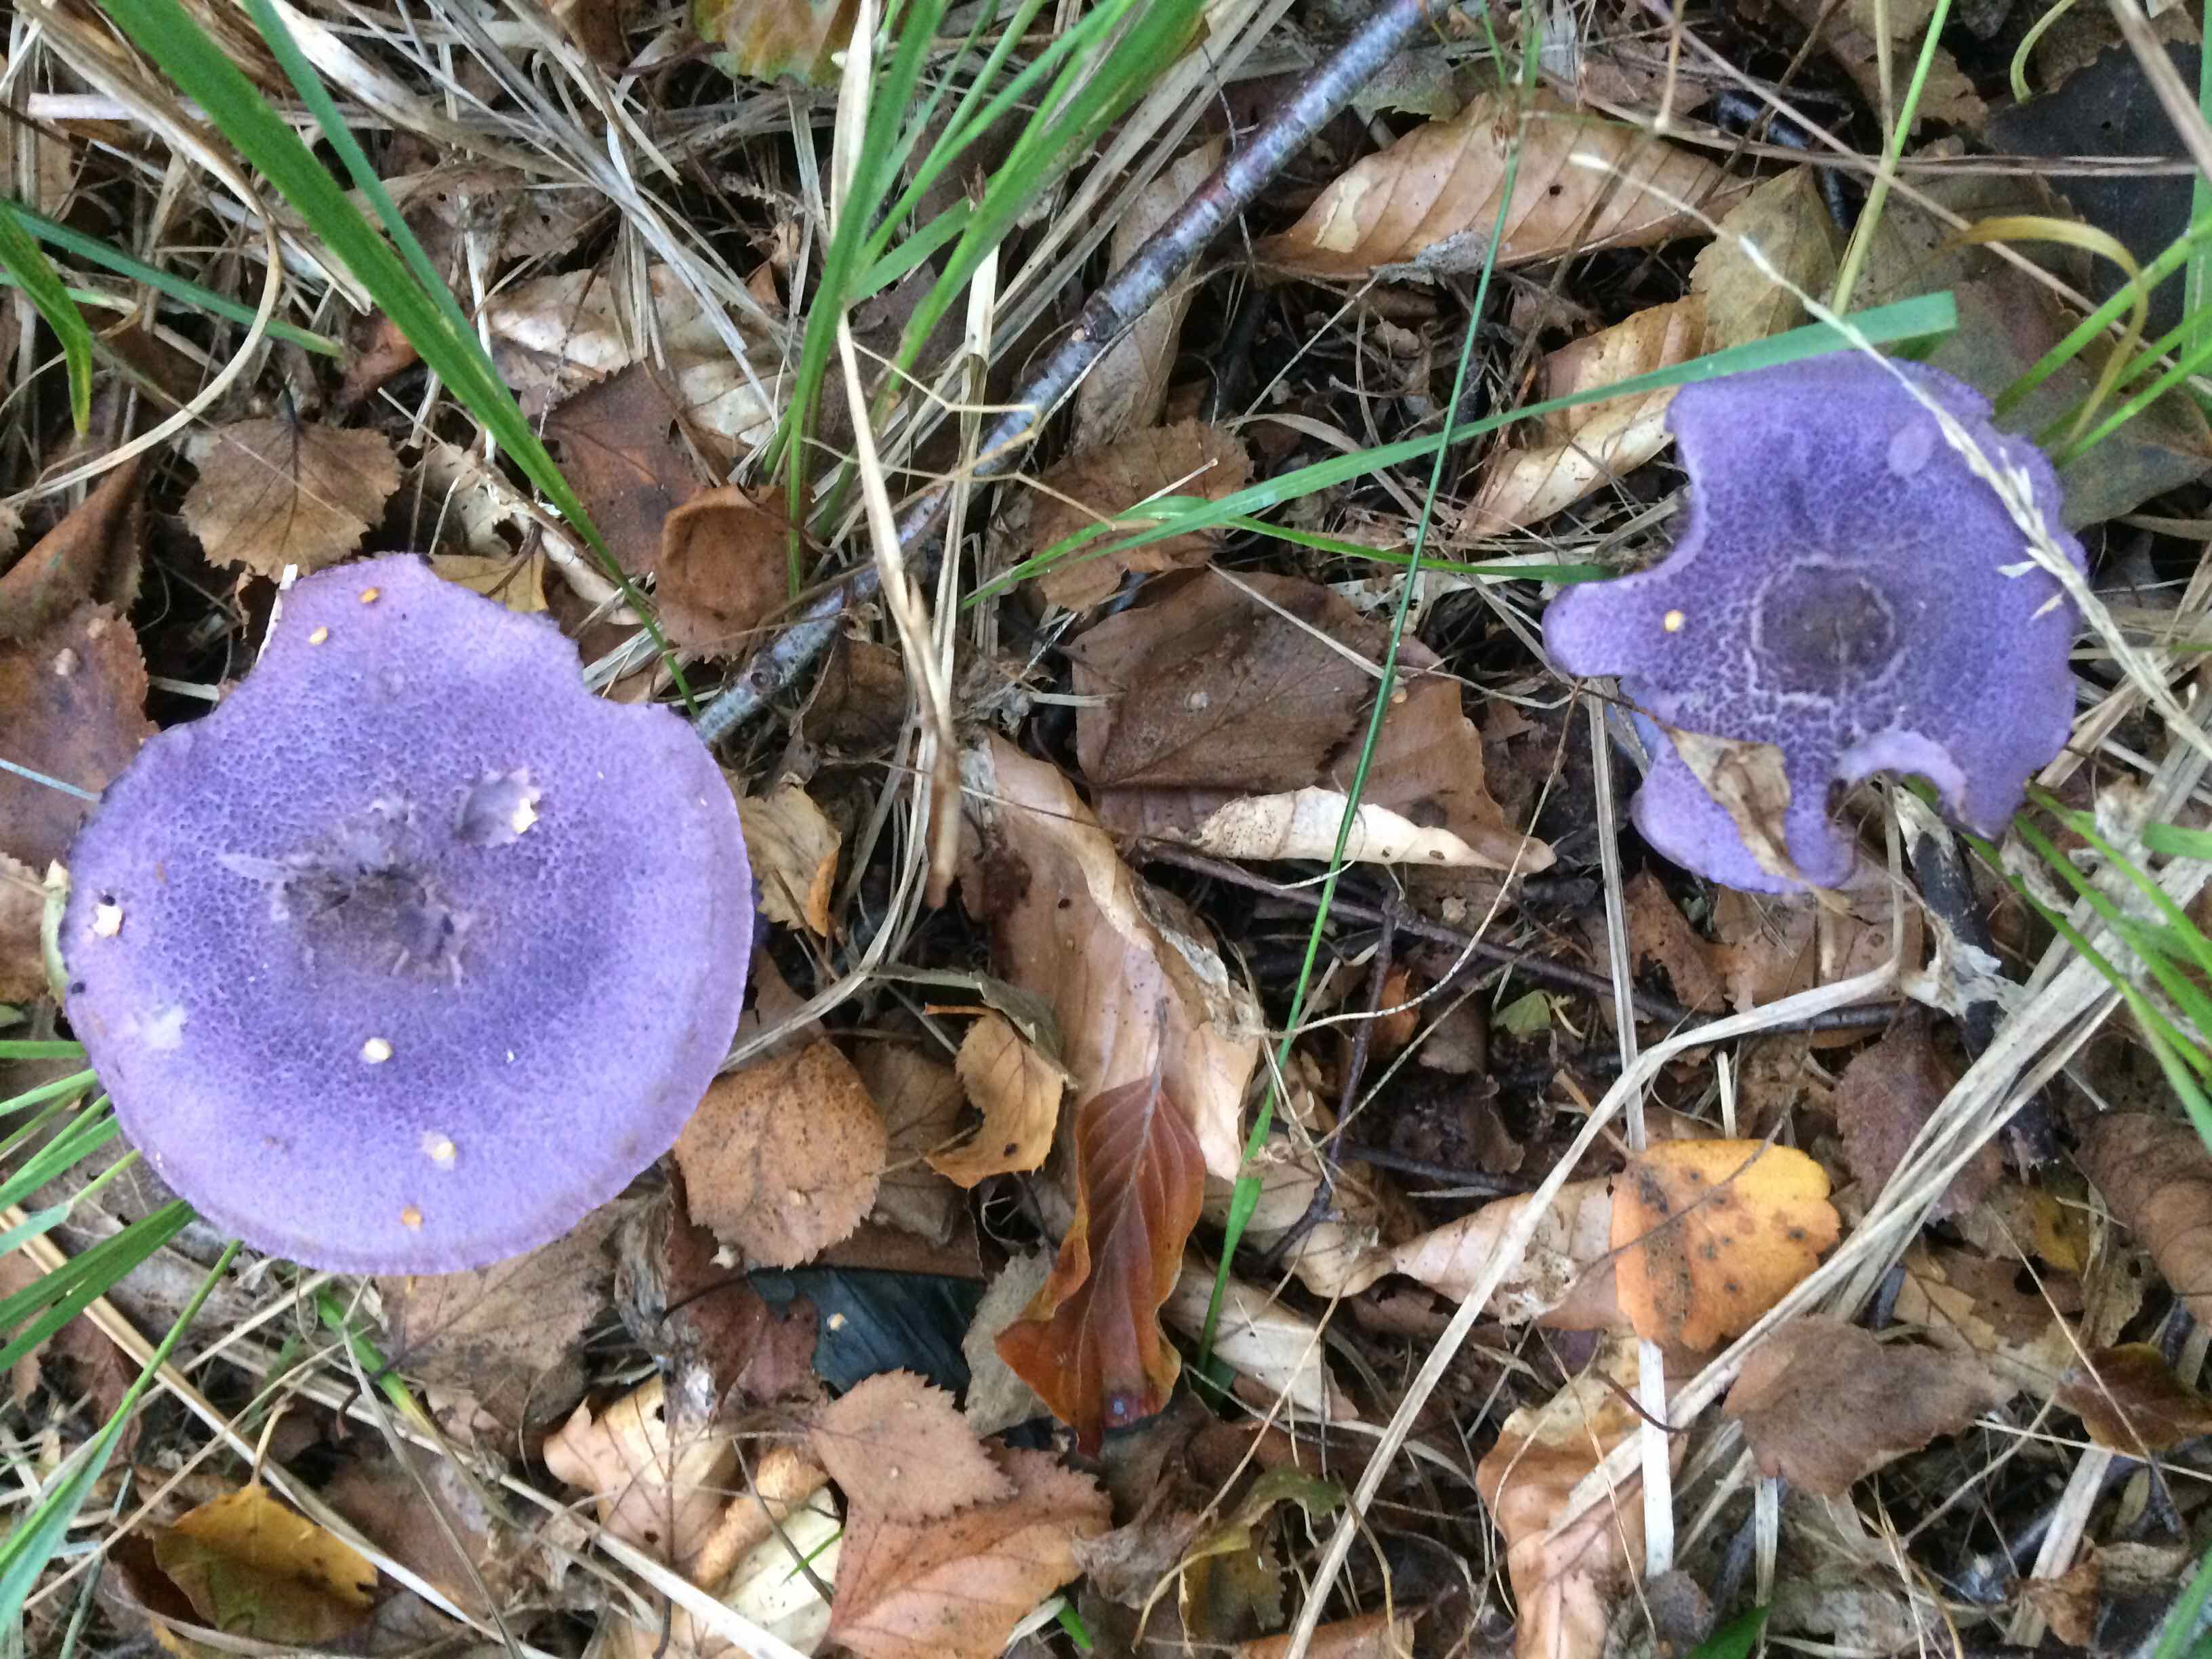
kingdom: Fungi
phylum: Basidiomycota
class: Agaricomycetes
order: Agaricales
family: Cortinariaceae
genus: Cortinarius
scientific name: Cortinarius violaceus
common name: mørkviolet slørhat
